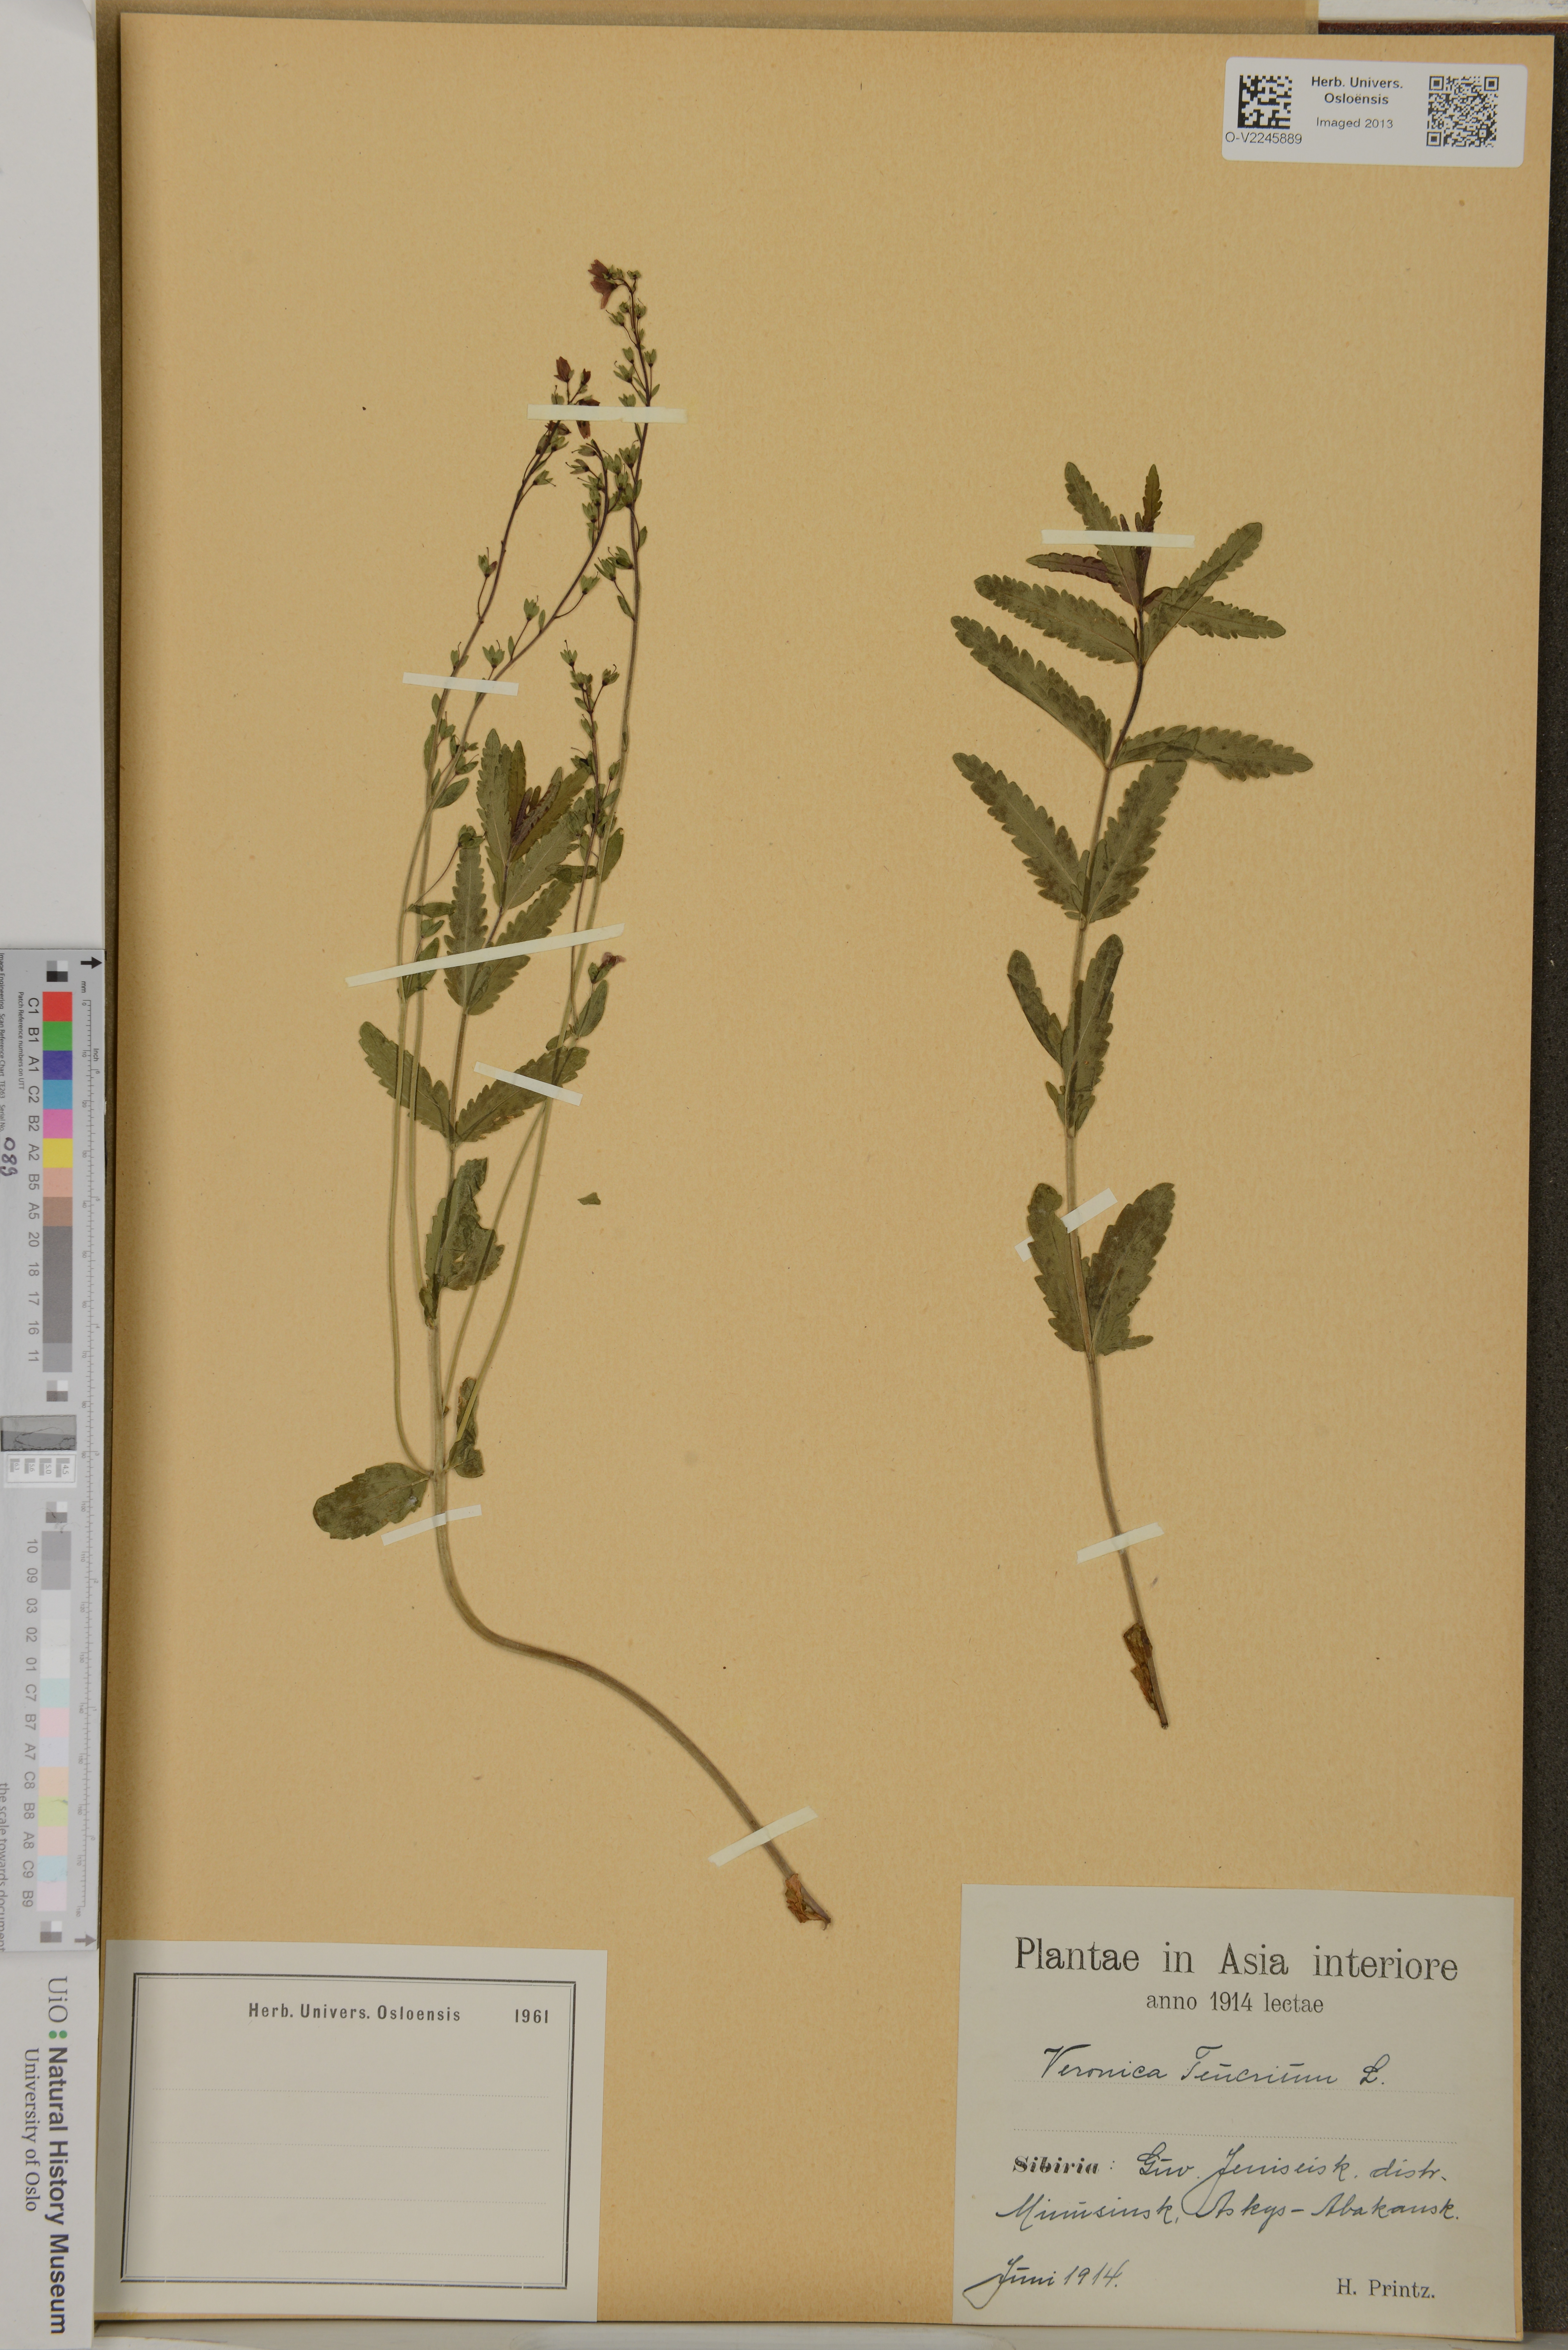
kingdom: Plantae
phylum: Tracheophyta
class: Magnoliopsida
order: Lamiales
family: Plantaginaceae
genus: Veronica
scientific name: Veronica teucrium
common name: Large speedwell
